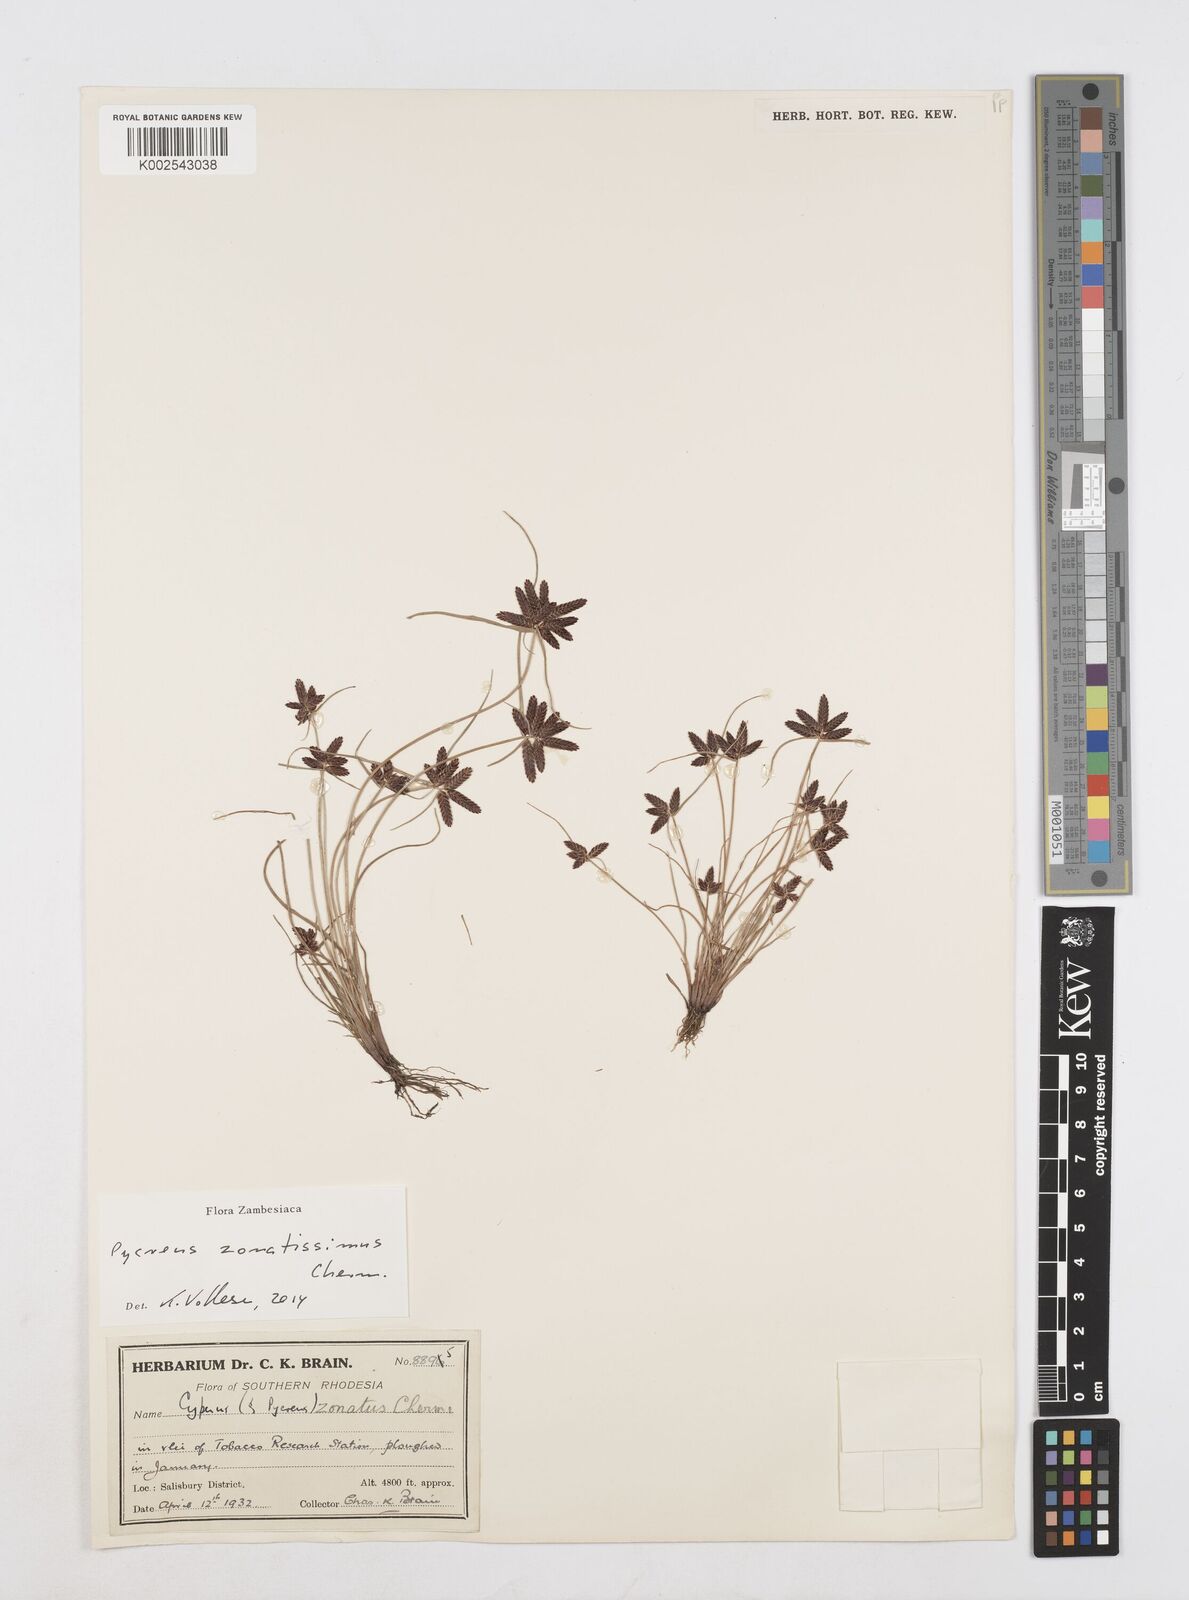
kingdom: Plantae
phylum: Tracheophyta
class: Liliopsida
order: Poales
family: Cyperaceae
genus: Cyperus
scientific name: Cyperus zonatissimus
